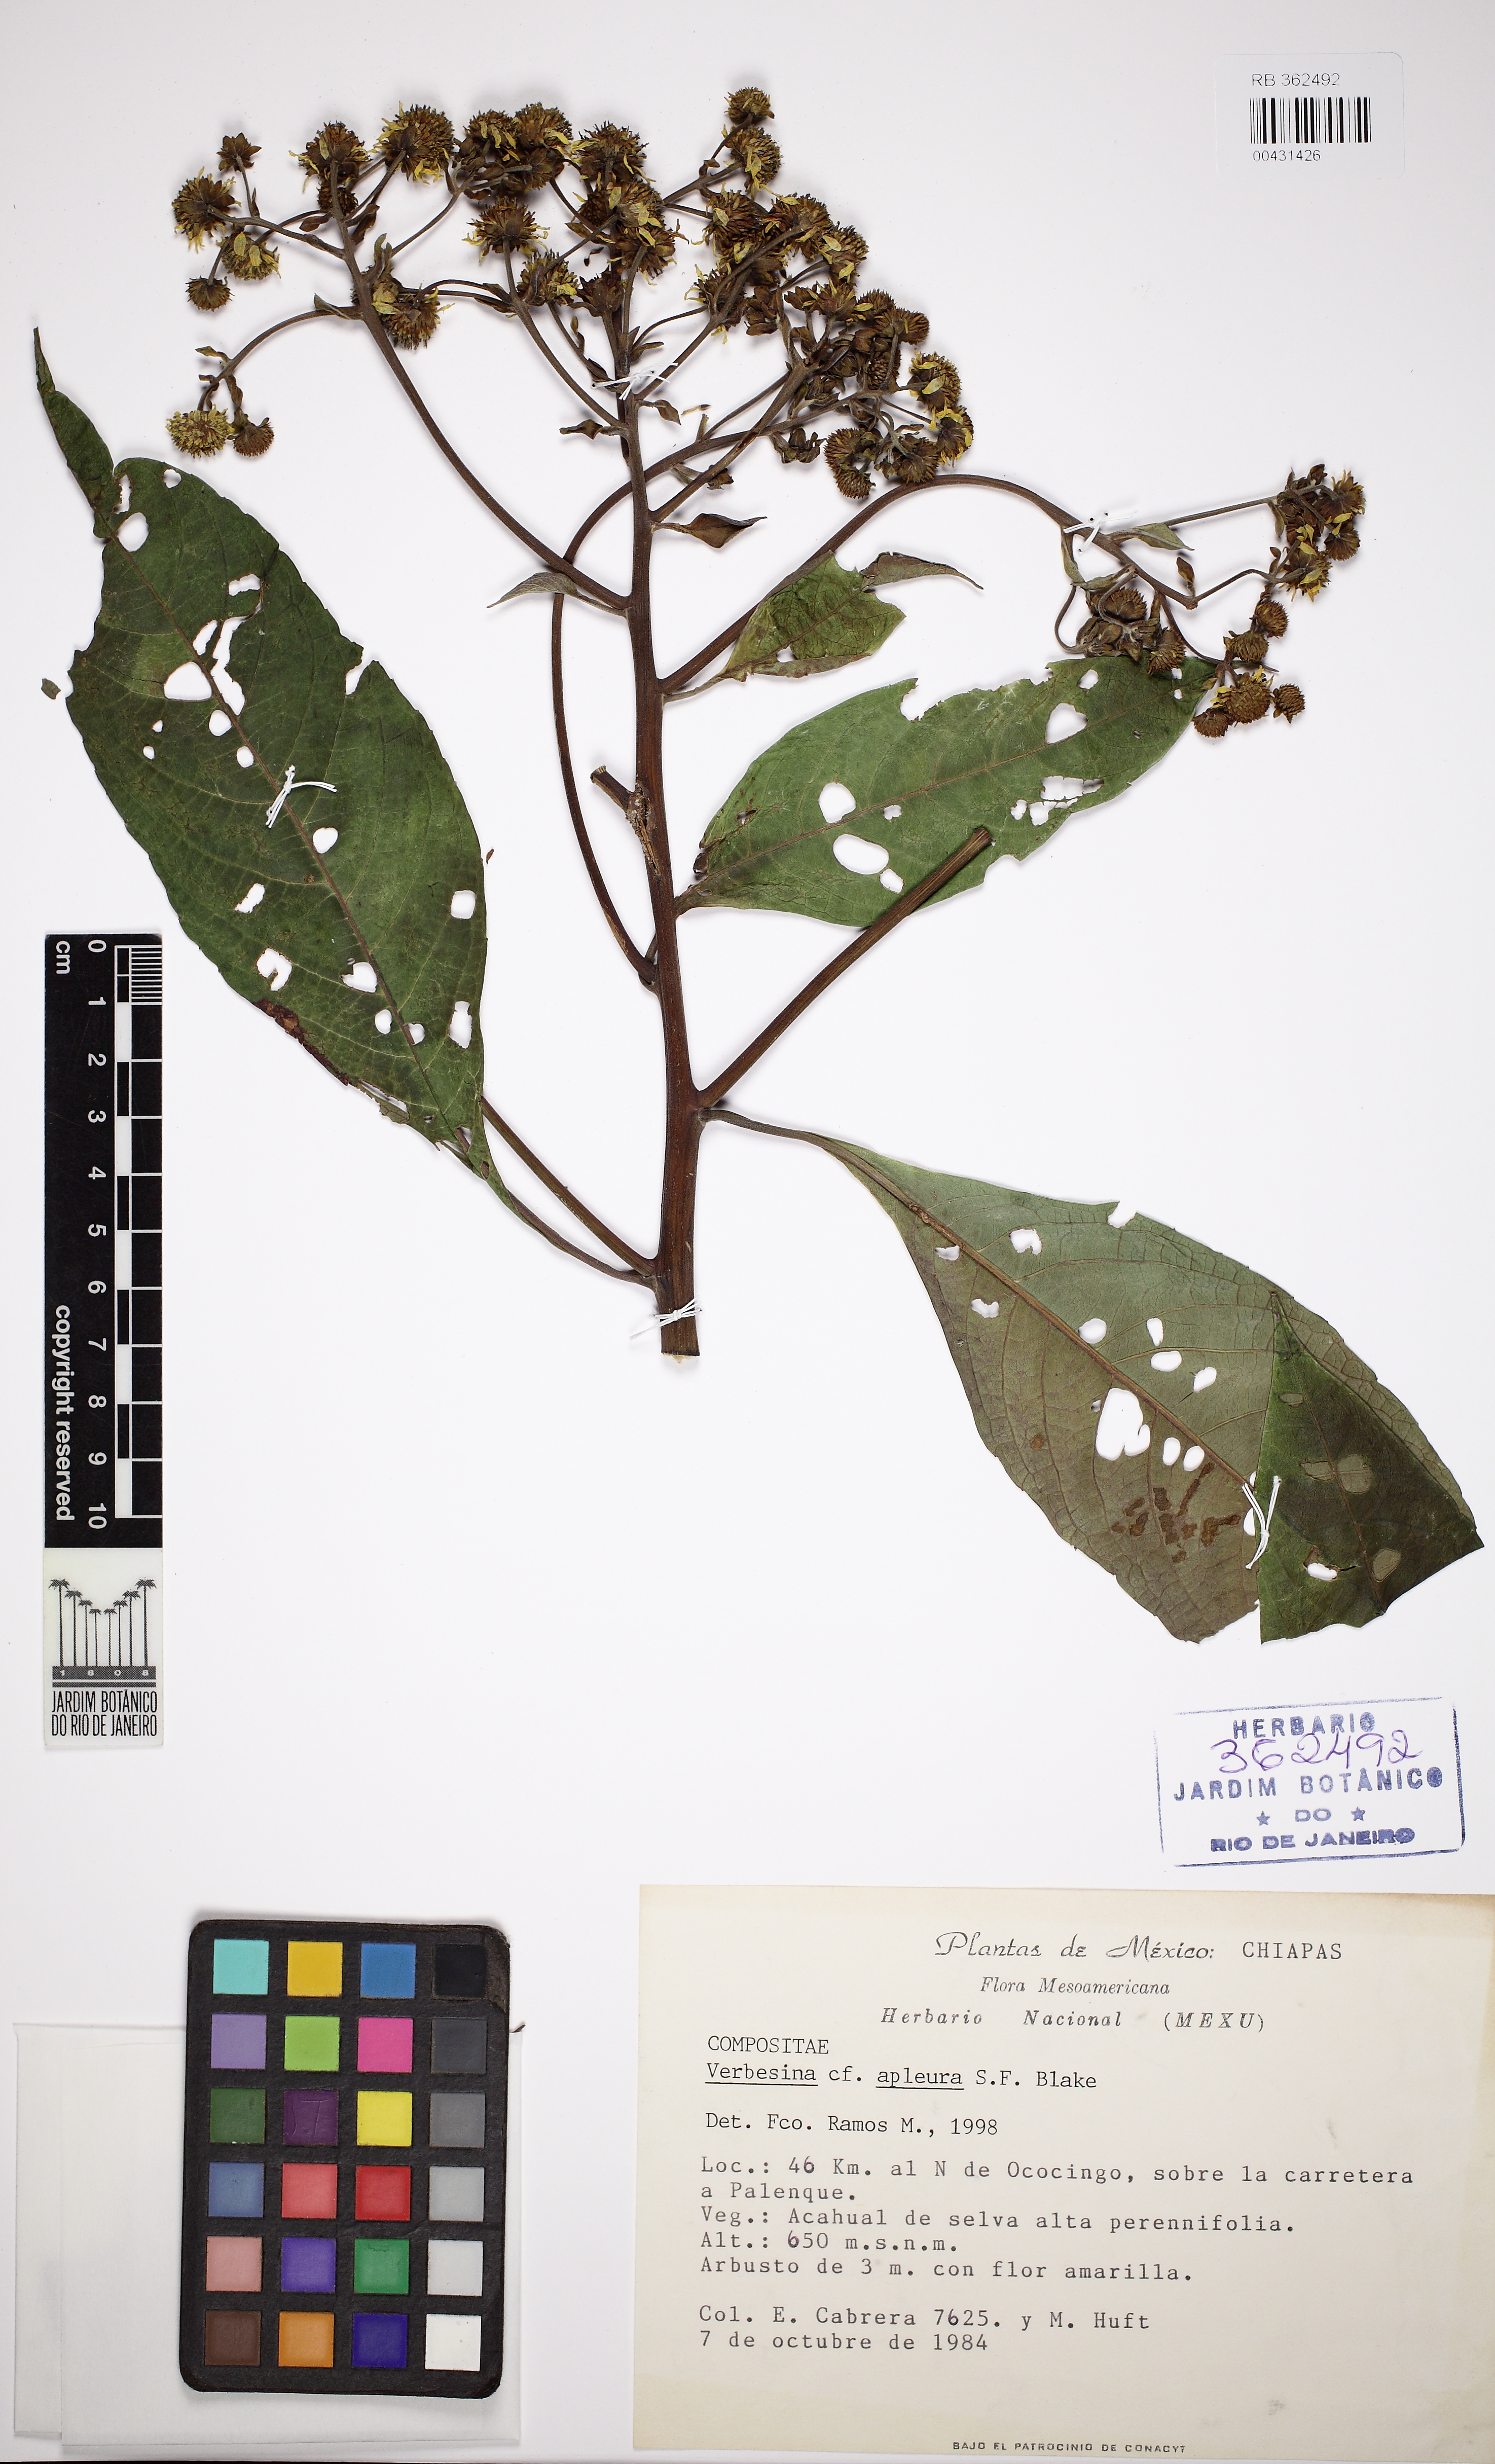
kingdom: Plantae
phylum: Tracheophyta
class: Magnoliopsida
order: Asterales
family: Asteraceae
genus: Verbesina
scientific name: Verbesina apleura
